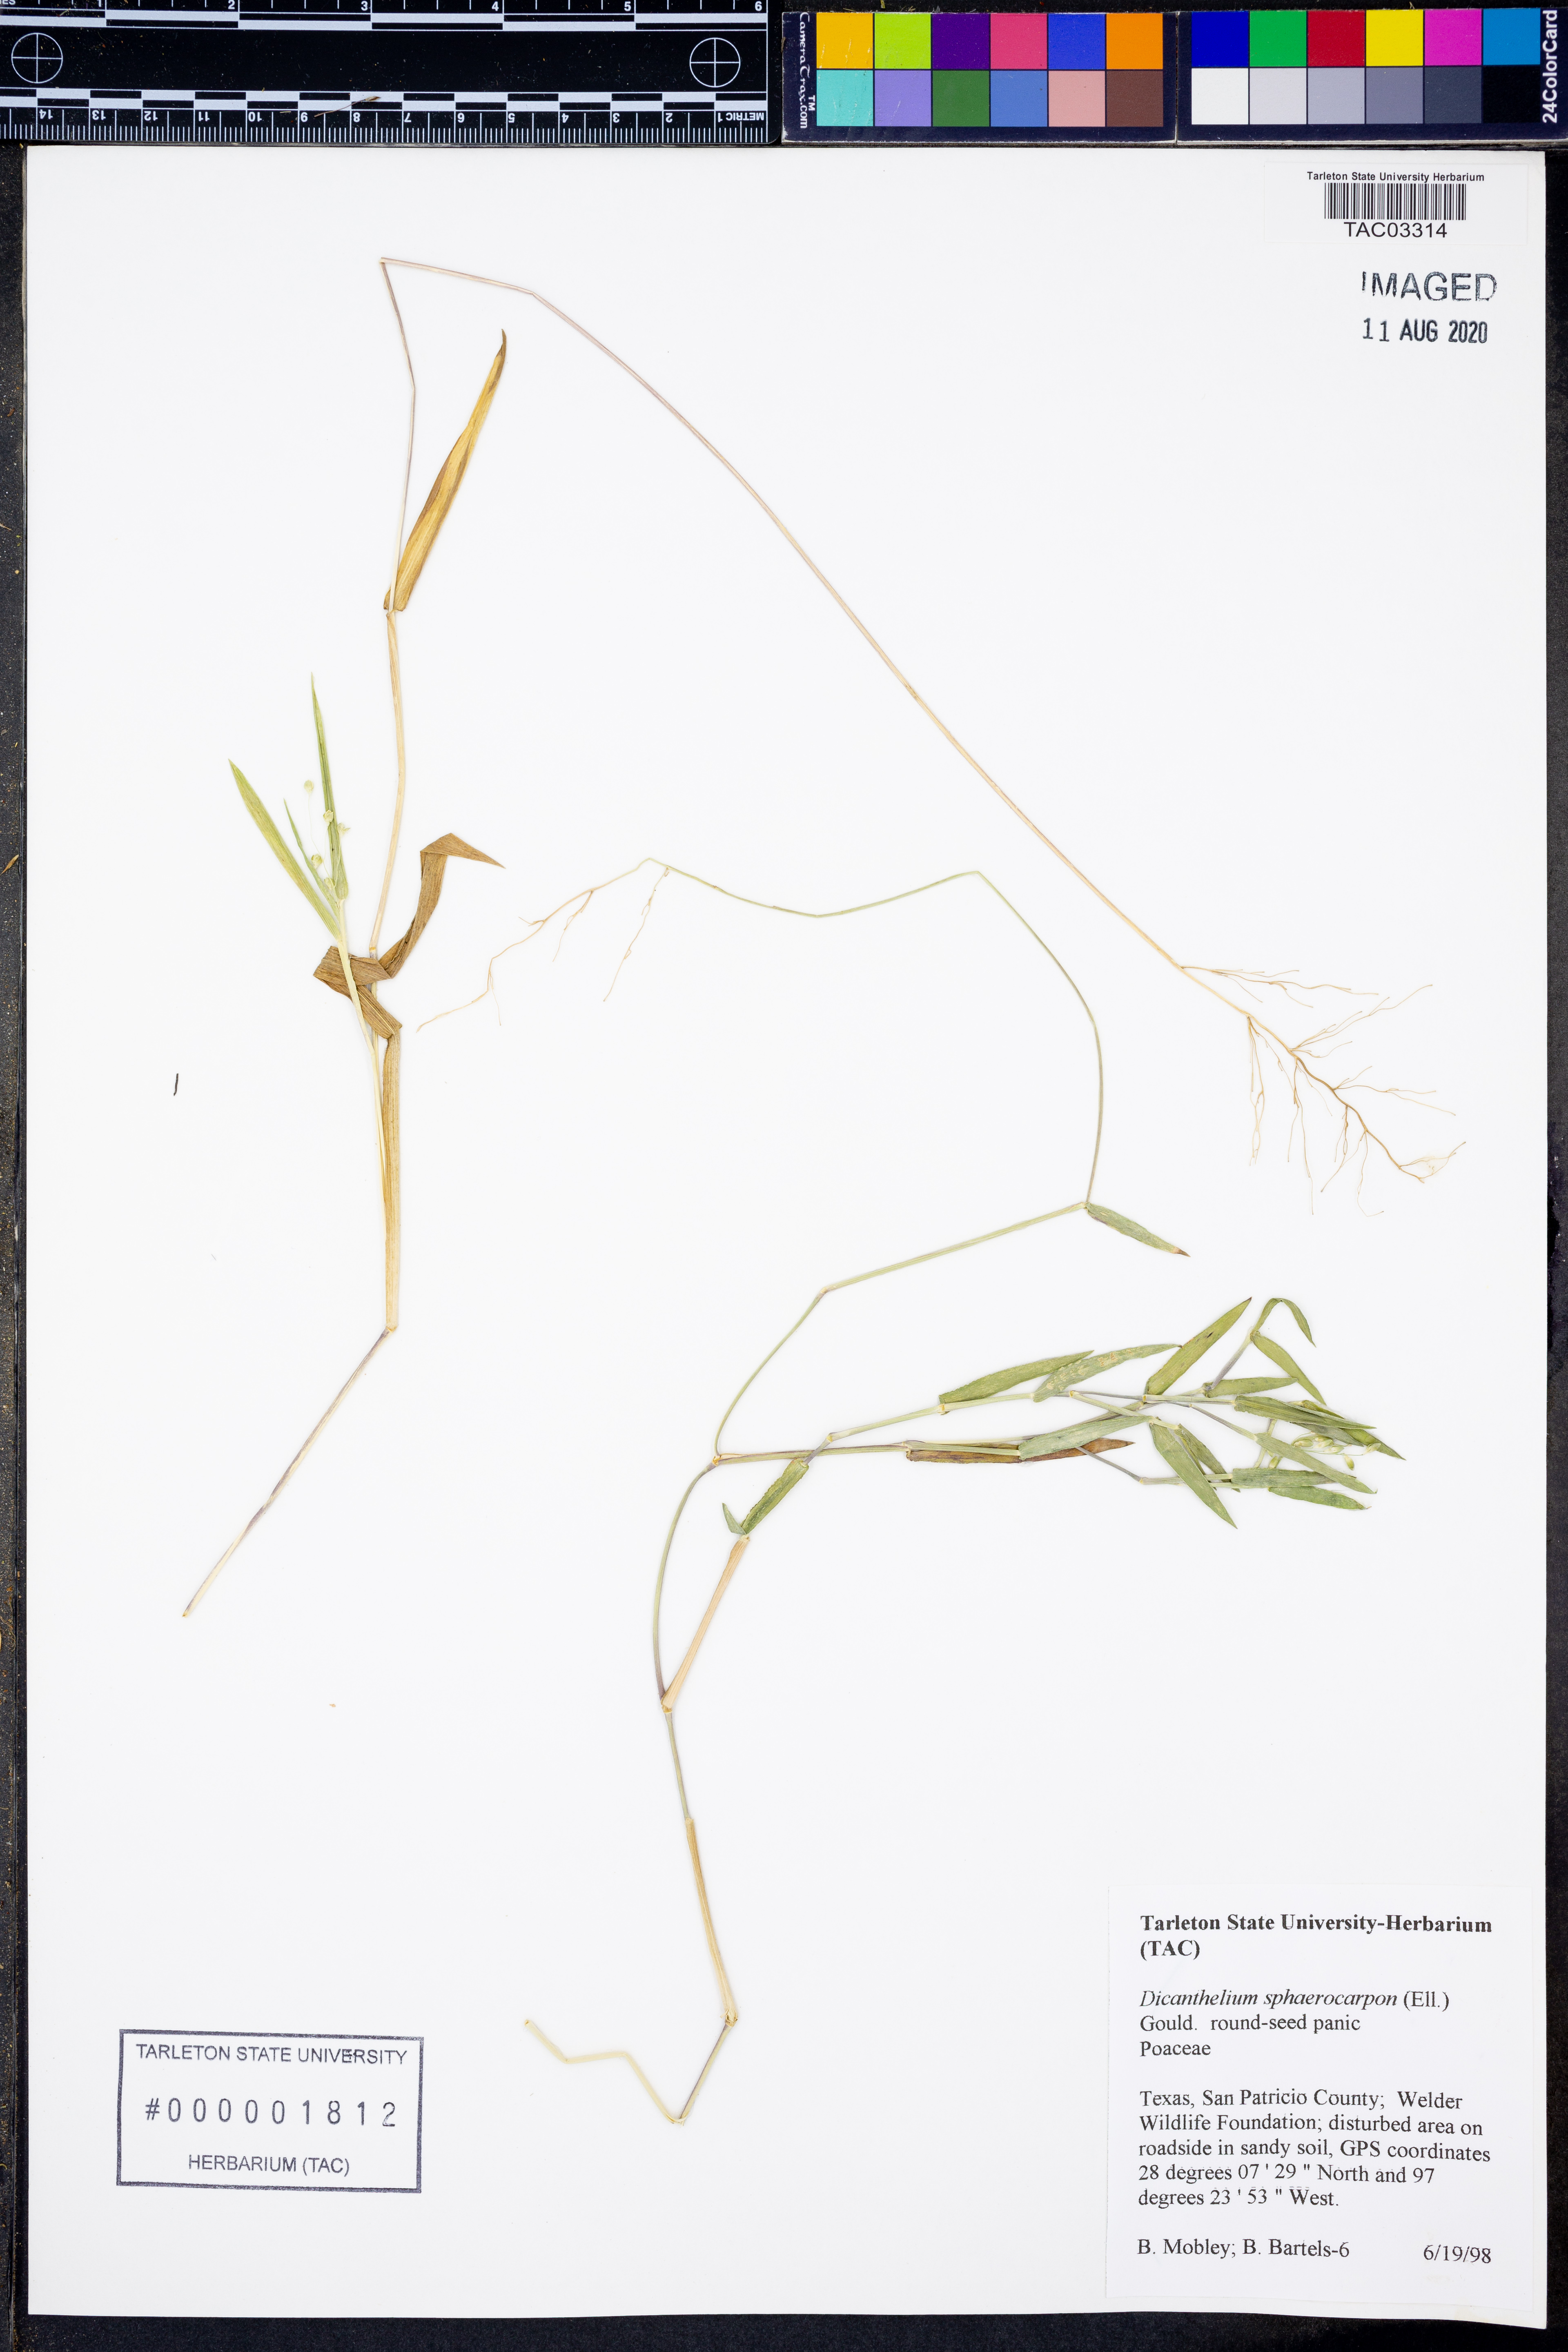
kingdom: Plantae
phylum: Tracheophyta
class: Liliopsida
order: Poales
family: Poaceae
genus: Dichanthelium
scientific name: Dichanthelium sphaerocarpon
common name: Round-fruited panicgrass
